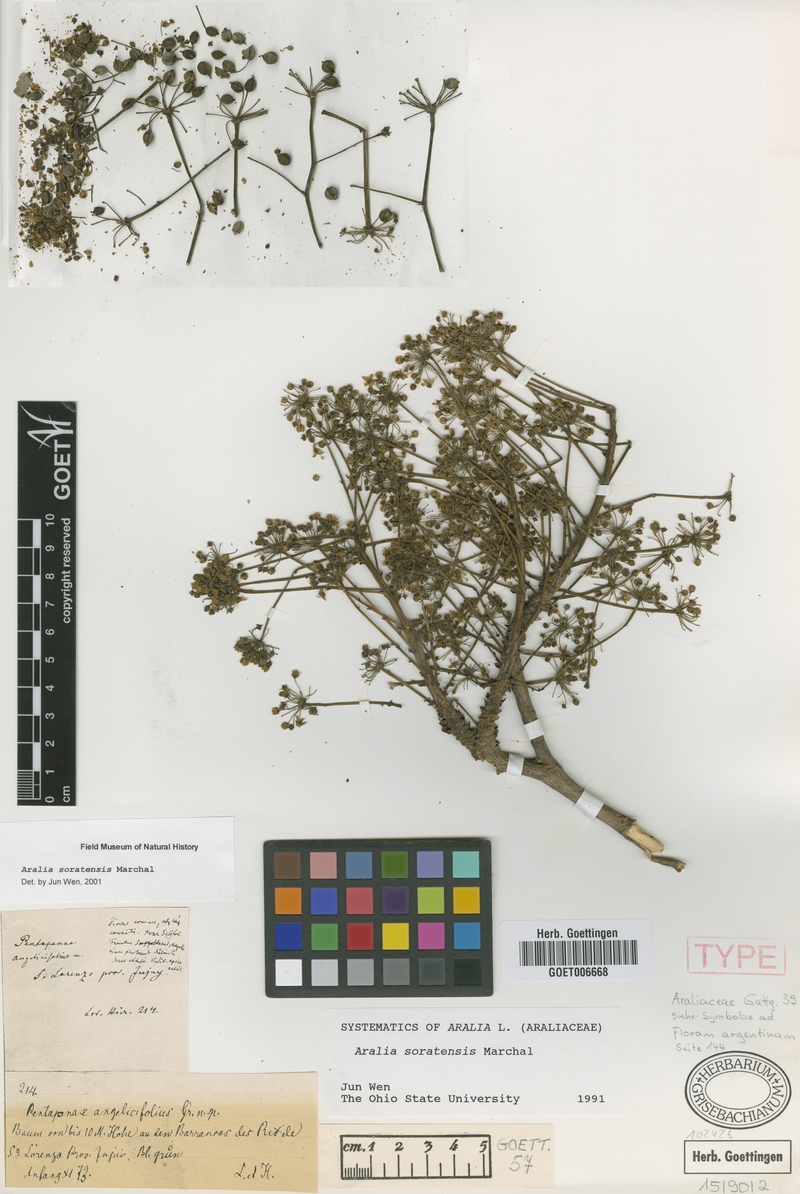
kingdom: Plantae
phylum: Tracheophyta
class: Magnoliopsida
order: Apiales
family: Araliaceae
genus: Aralia
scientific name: Aralia soratensis
